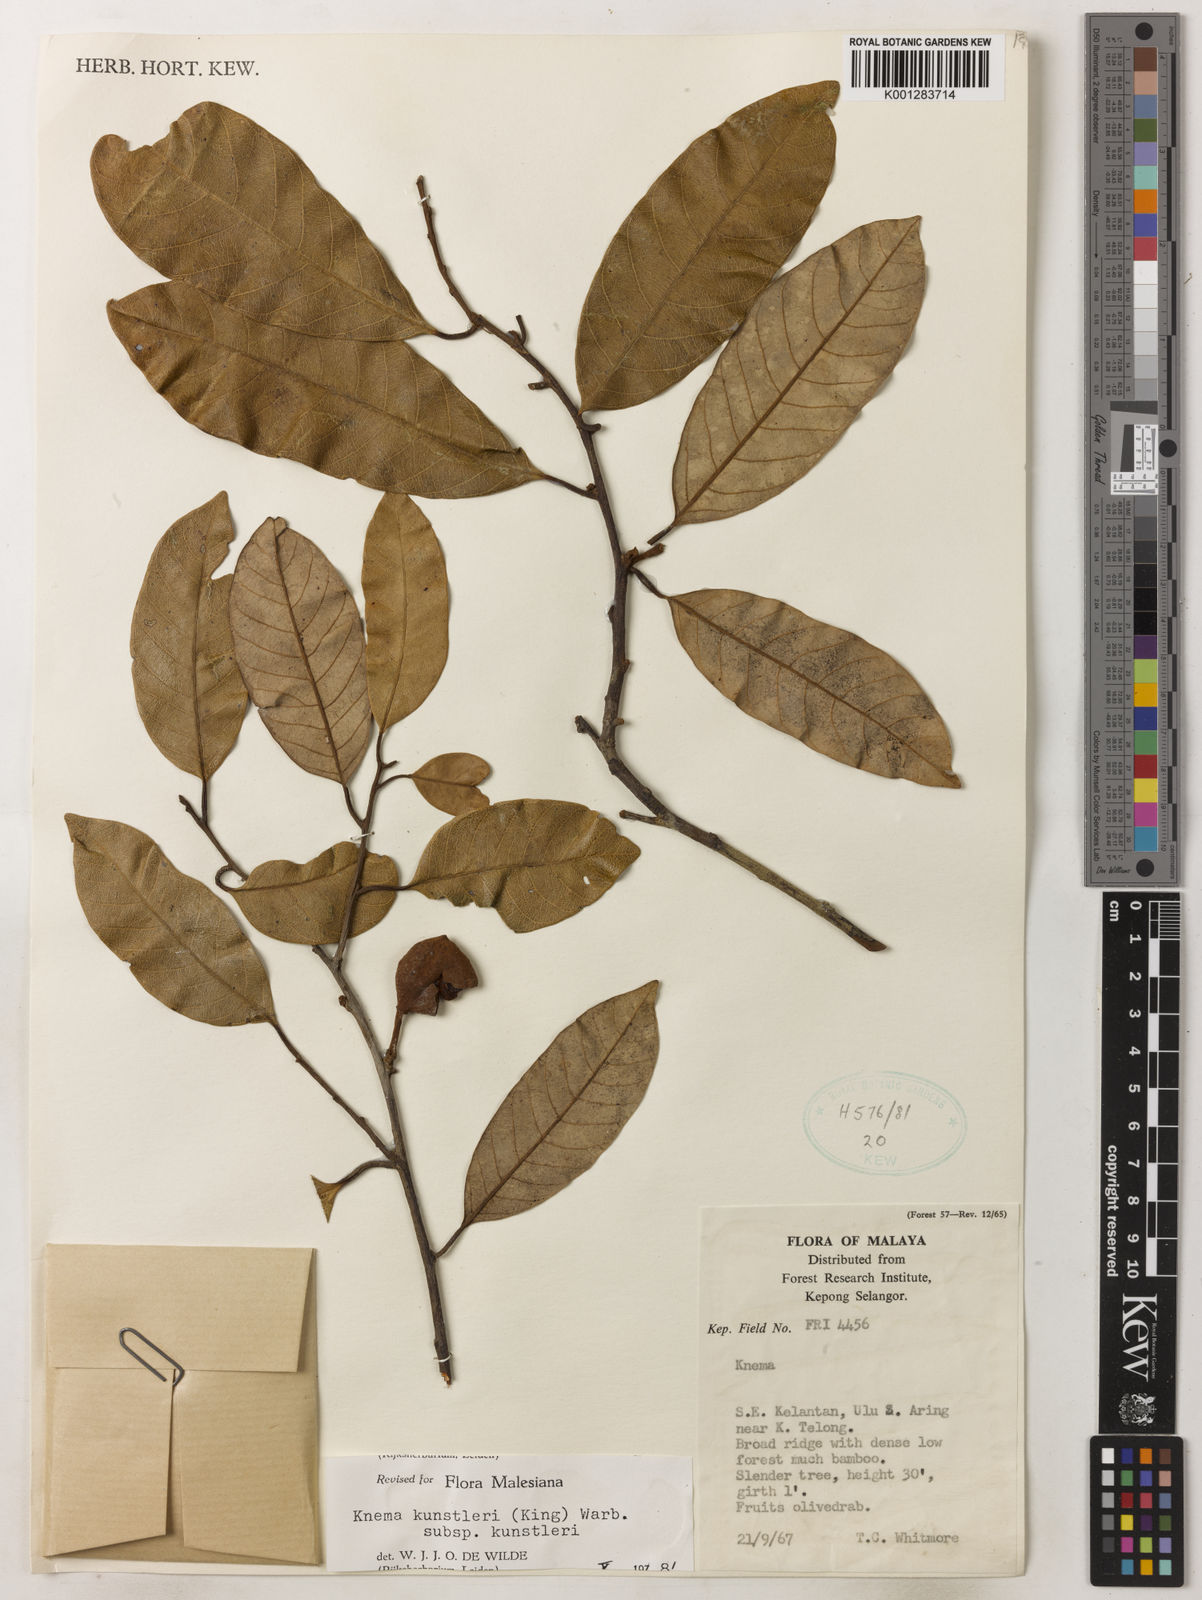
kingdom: Plantae
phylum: Tracheophyta
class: Magnoliopsida
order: Magnoliales
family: Myristicaceae
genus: Knema
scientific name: Knema kunstleri
